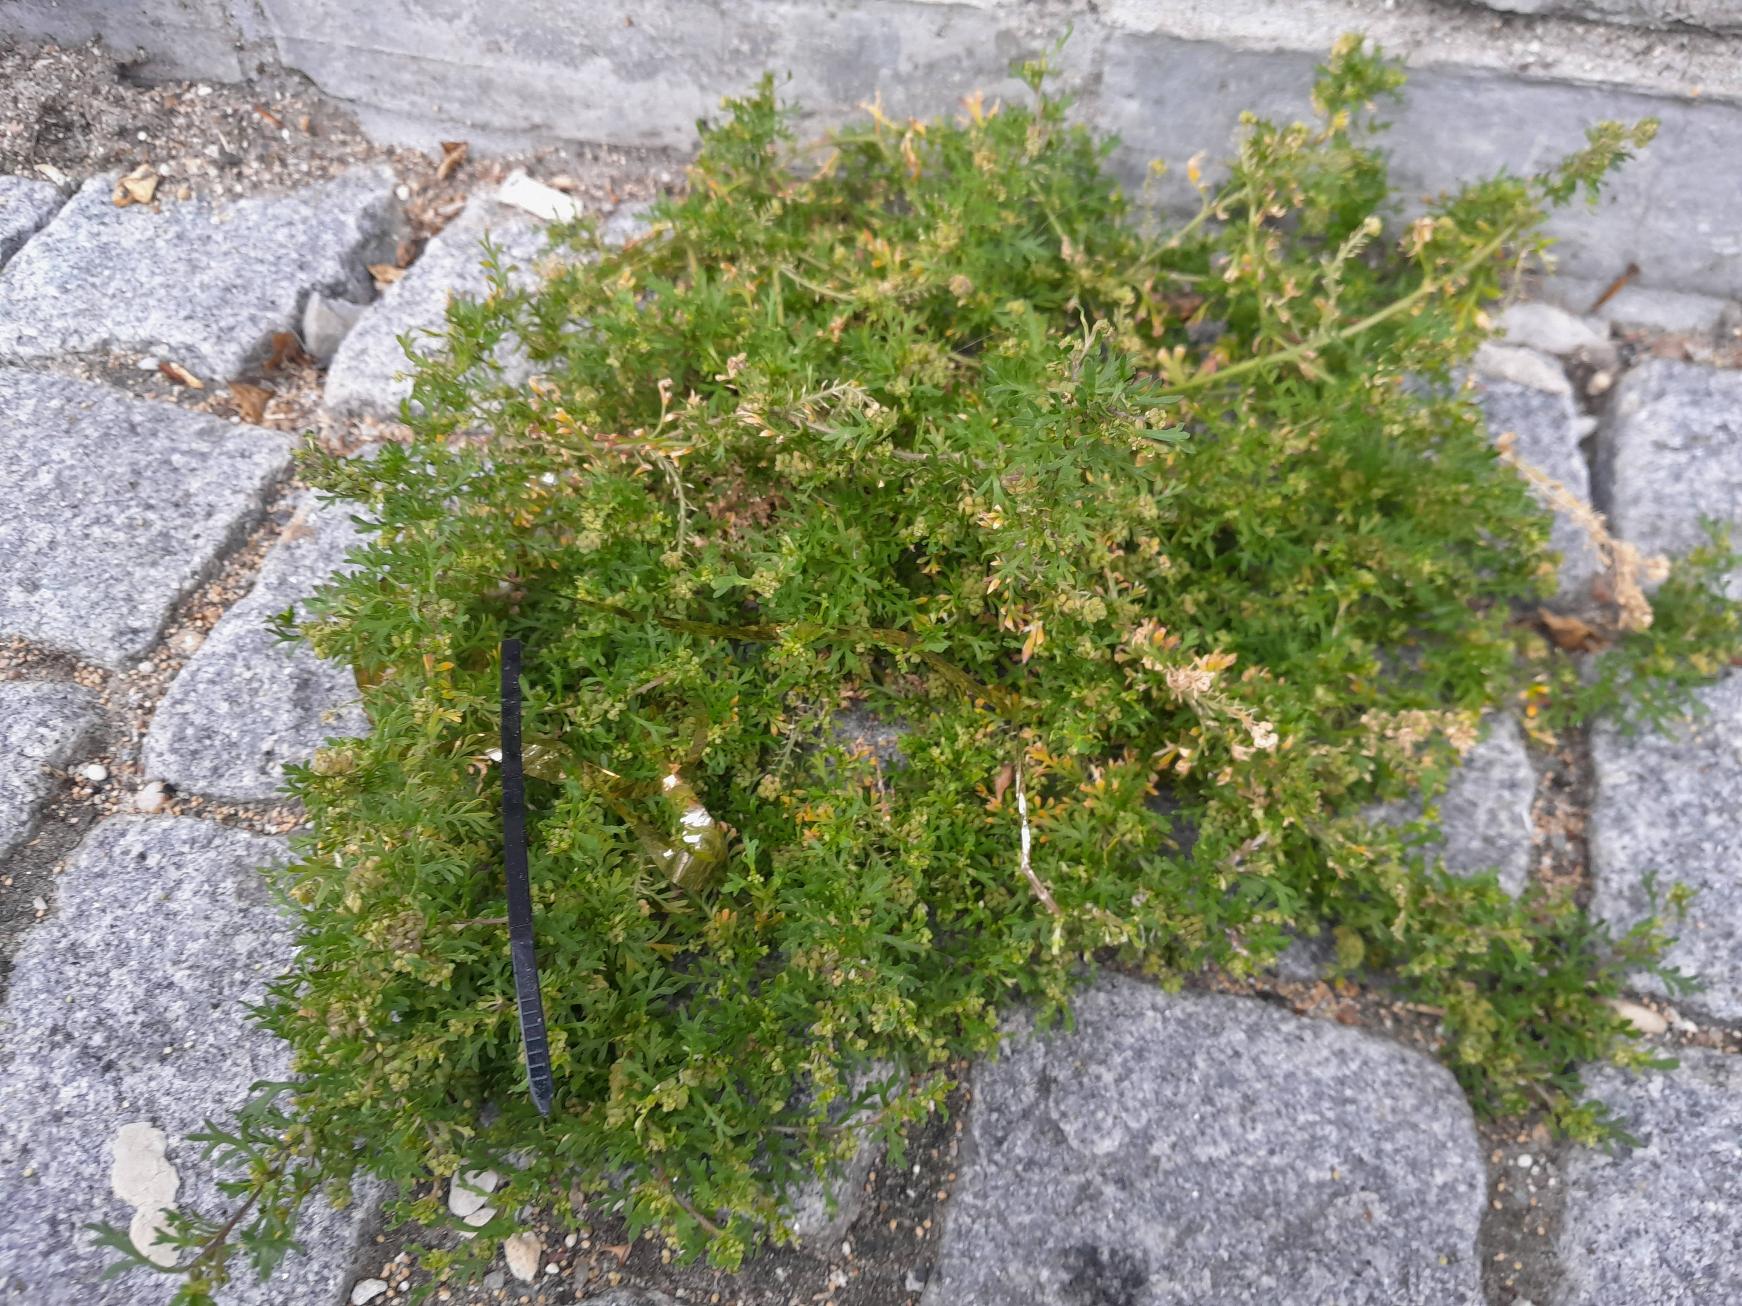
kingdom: Plantae
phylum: Tracheophyta
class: Magnoliopsida
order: Brassicales
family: Brassicaceae
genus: Lepidium
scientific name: Lepidium didymum
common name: Liden ravnefod
